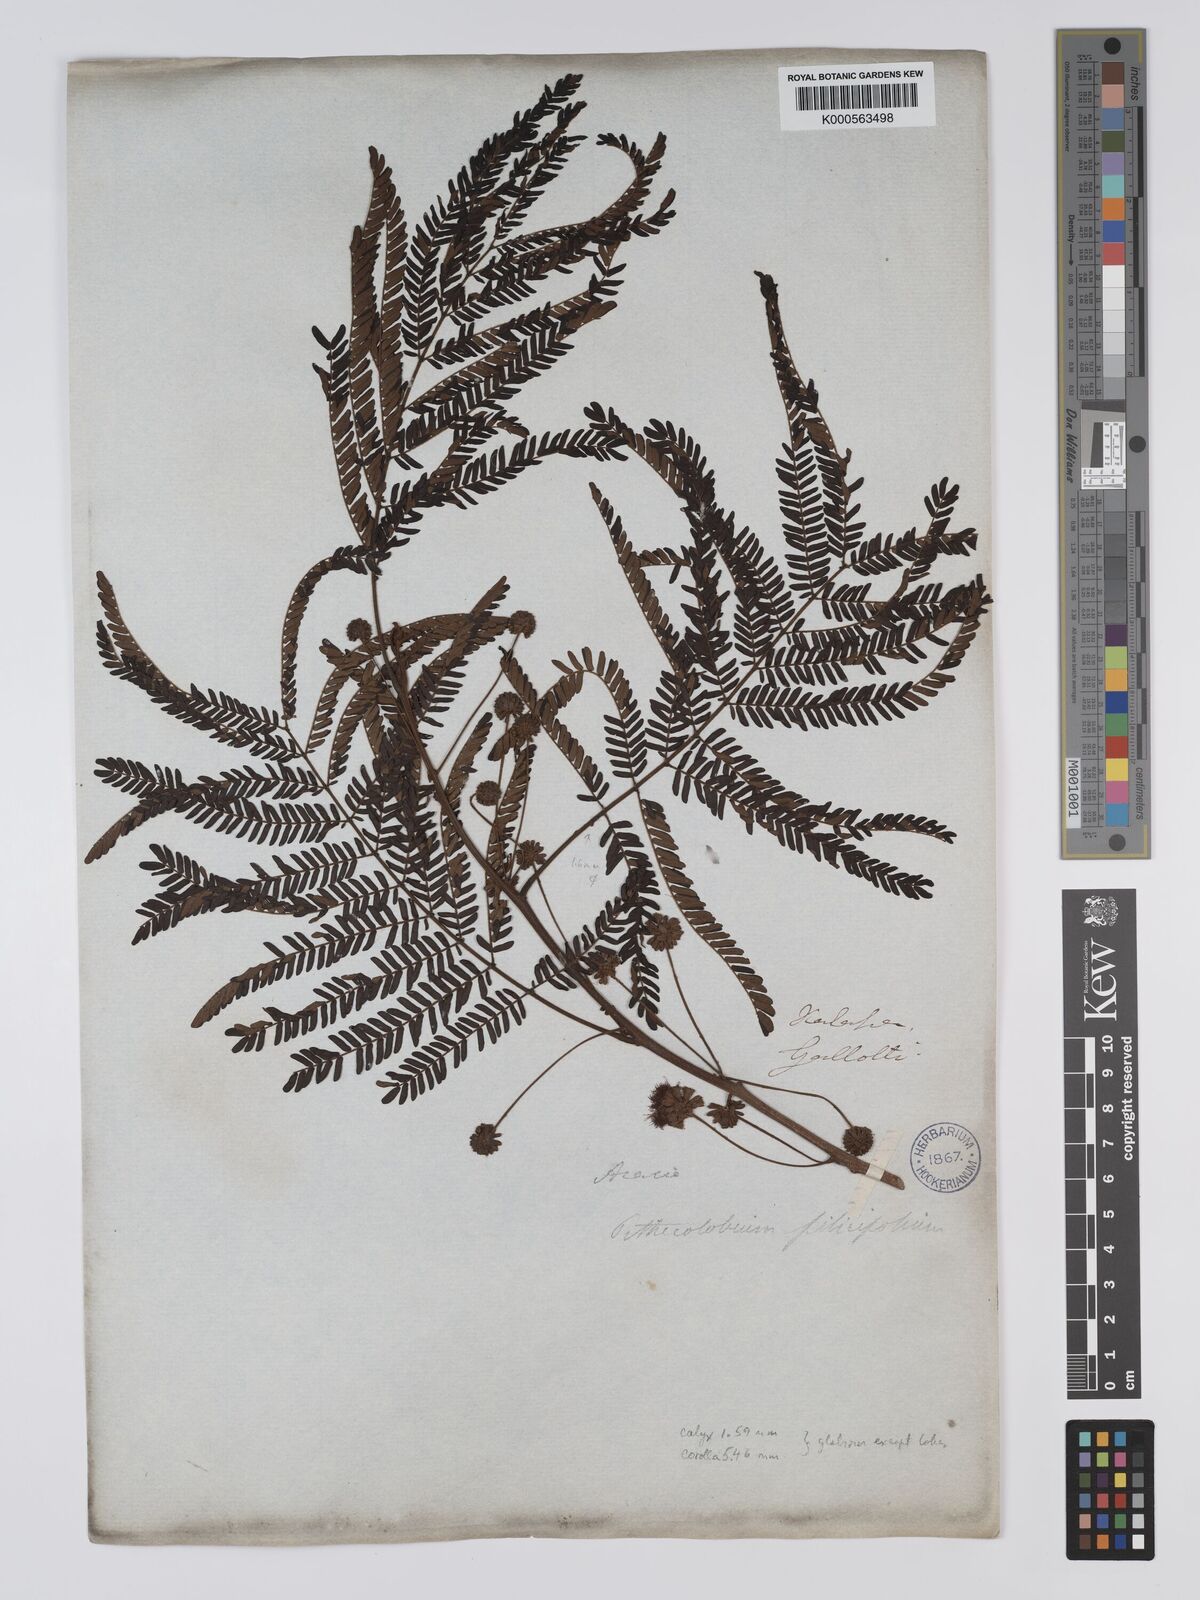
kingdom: Plantae
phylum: Tracheophyta
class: Magnoliopsida
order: Fabales
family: Fabaceae
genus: Cojoba
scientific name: Cojoba arborea
